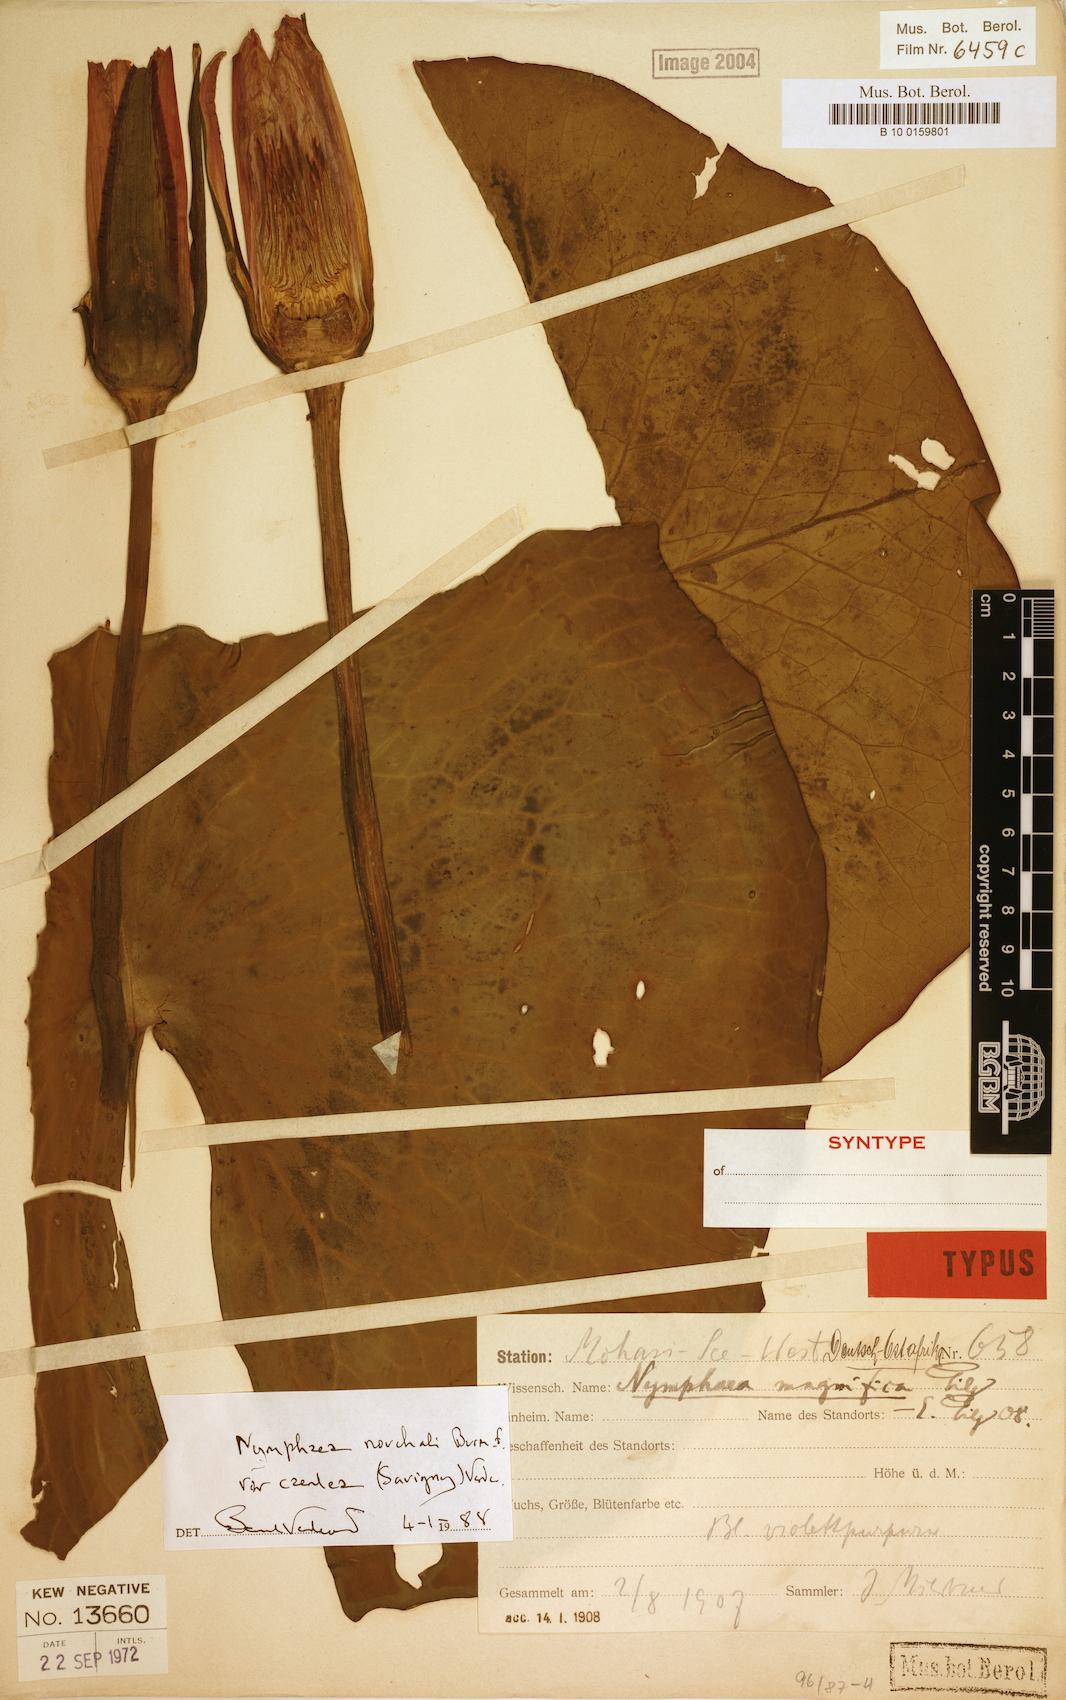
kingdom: Plantae
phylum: Tracheophyta
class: Magnoliopsida
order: Nymphaeales
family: Nymphaeaceae
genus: Nymphaea
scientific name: Nymphaea nouchali
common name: Blue lotus
